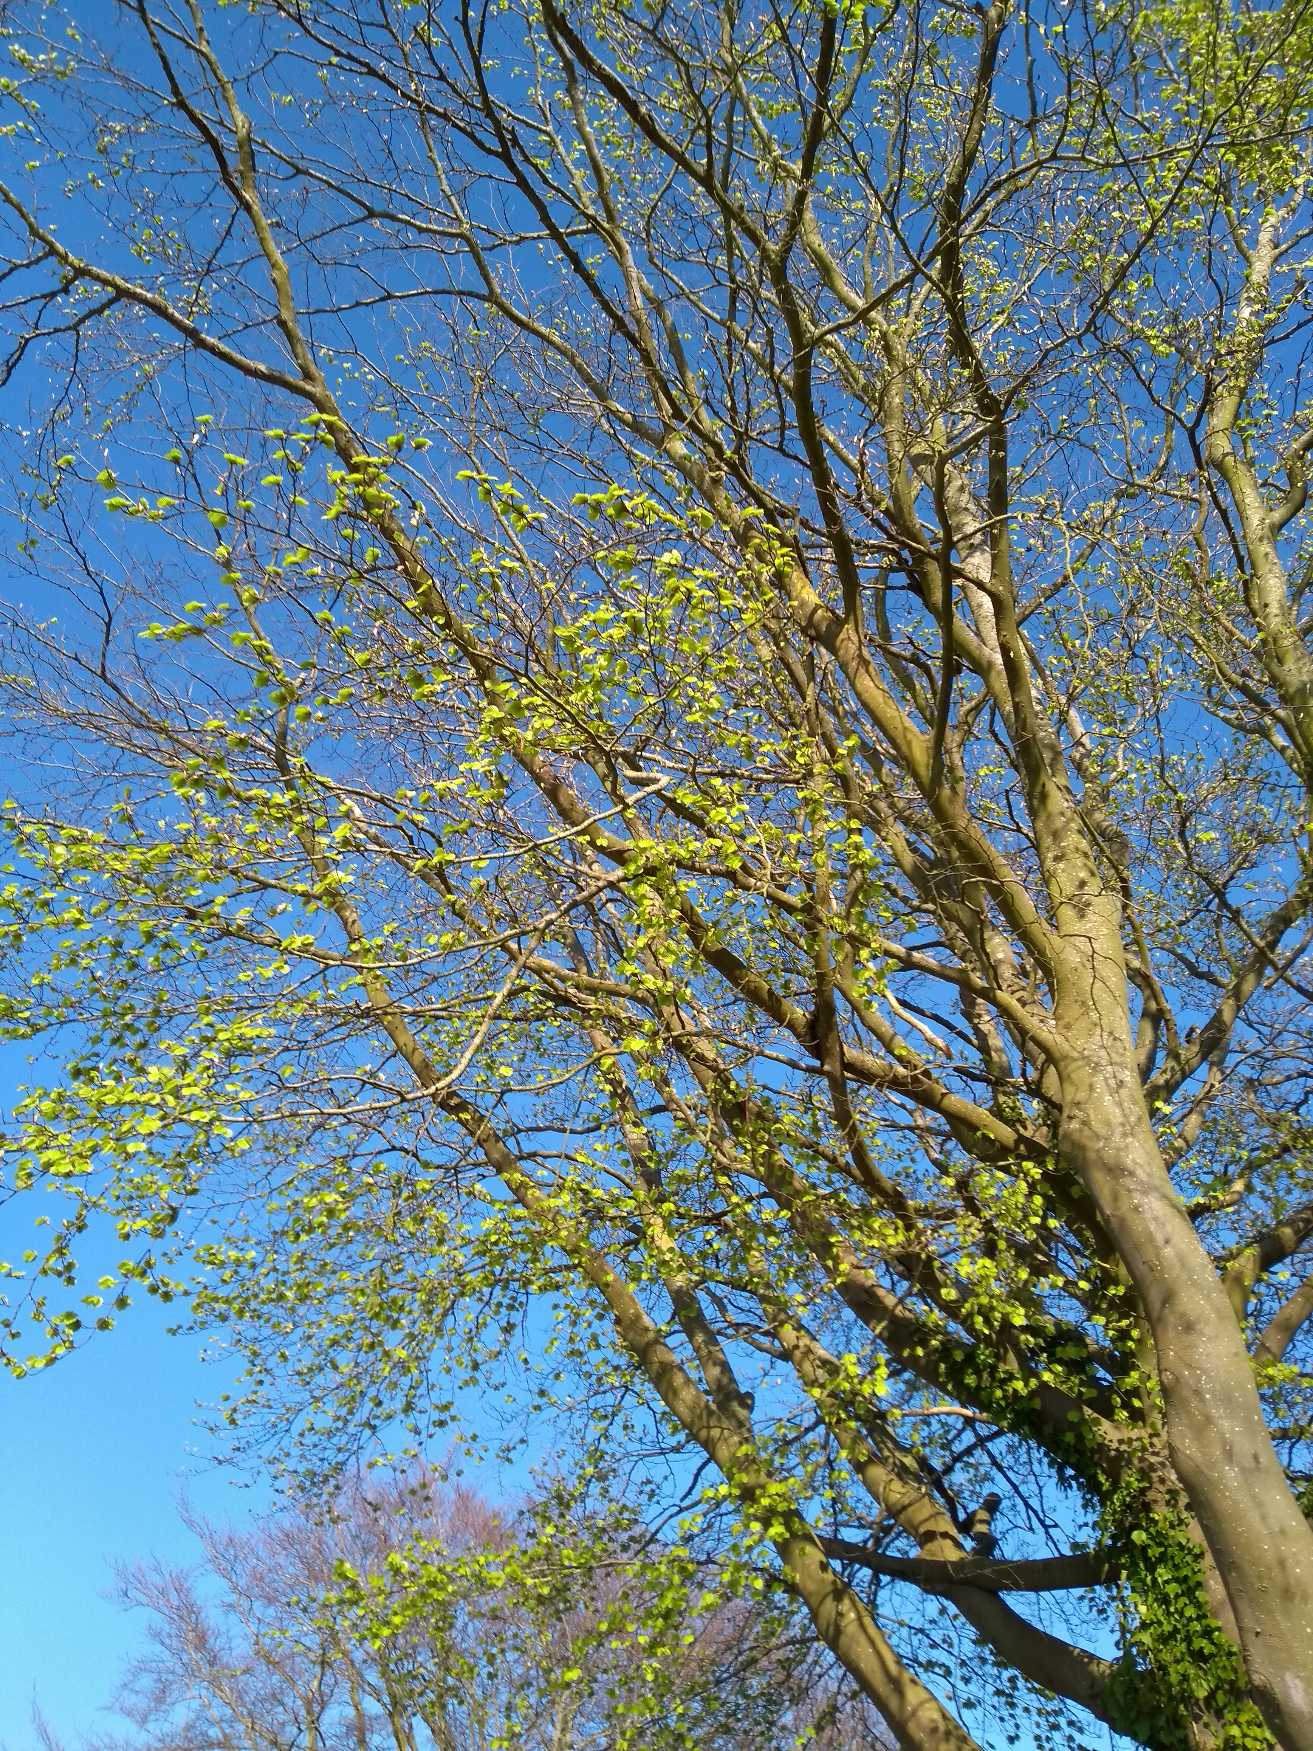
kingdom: Plantae
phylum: Tracheophyta
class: Magnoliopsida
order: Fagales
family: Fagaceae
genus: Fagus
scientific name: Fagus sylvatica
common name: Bøg
